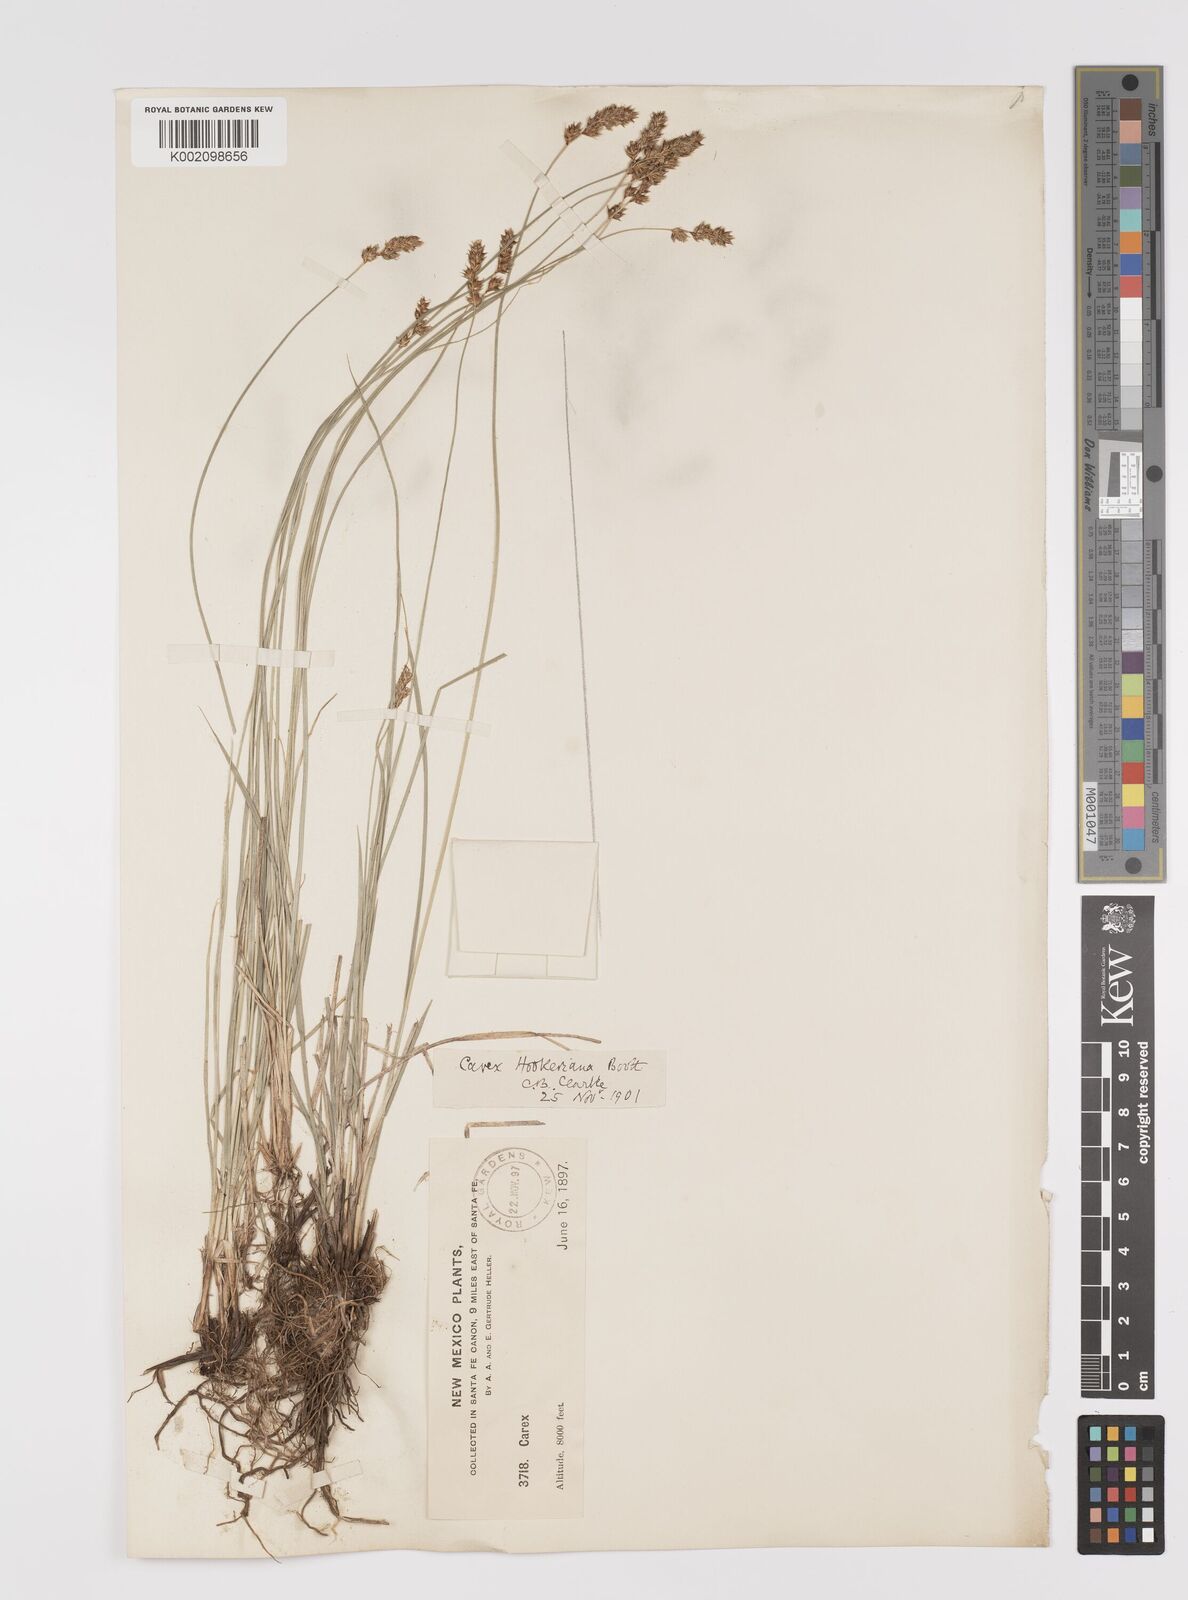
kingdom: Plantae
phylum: Tracheophyta
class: Liliopsida
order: Poales
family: Cyperaceae
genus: Carex
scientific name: Carex hookeriana
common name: Hooker's sedge
